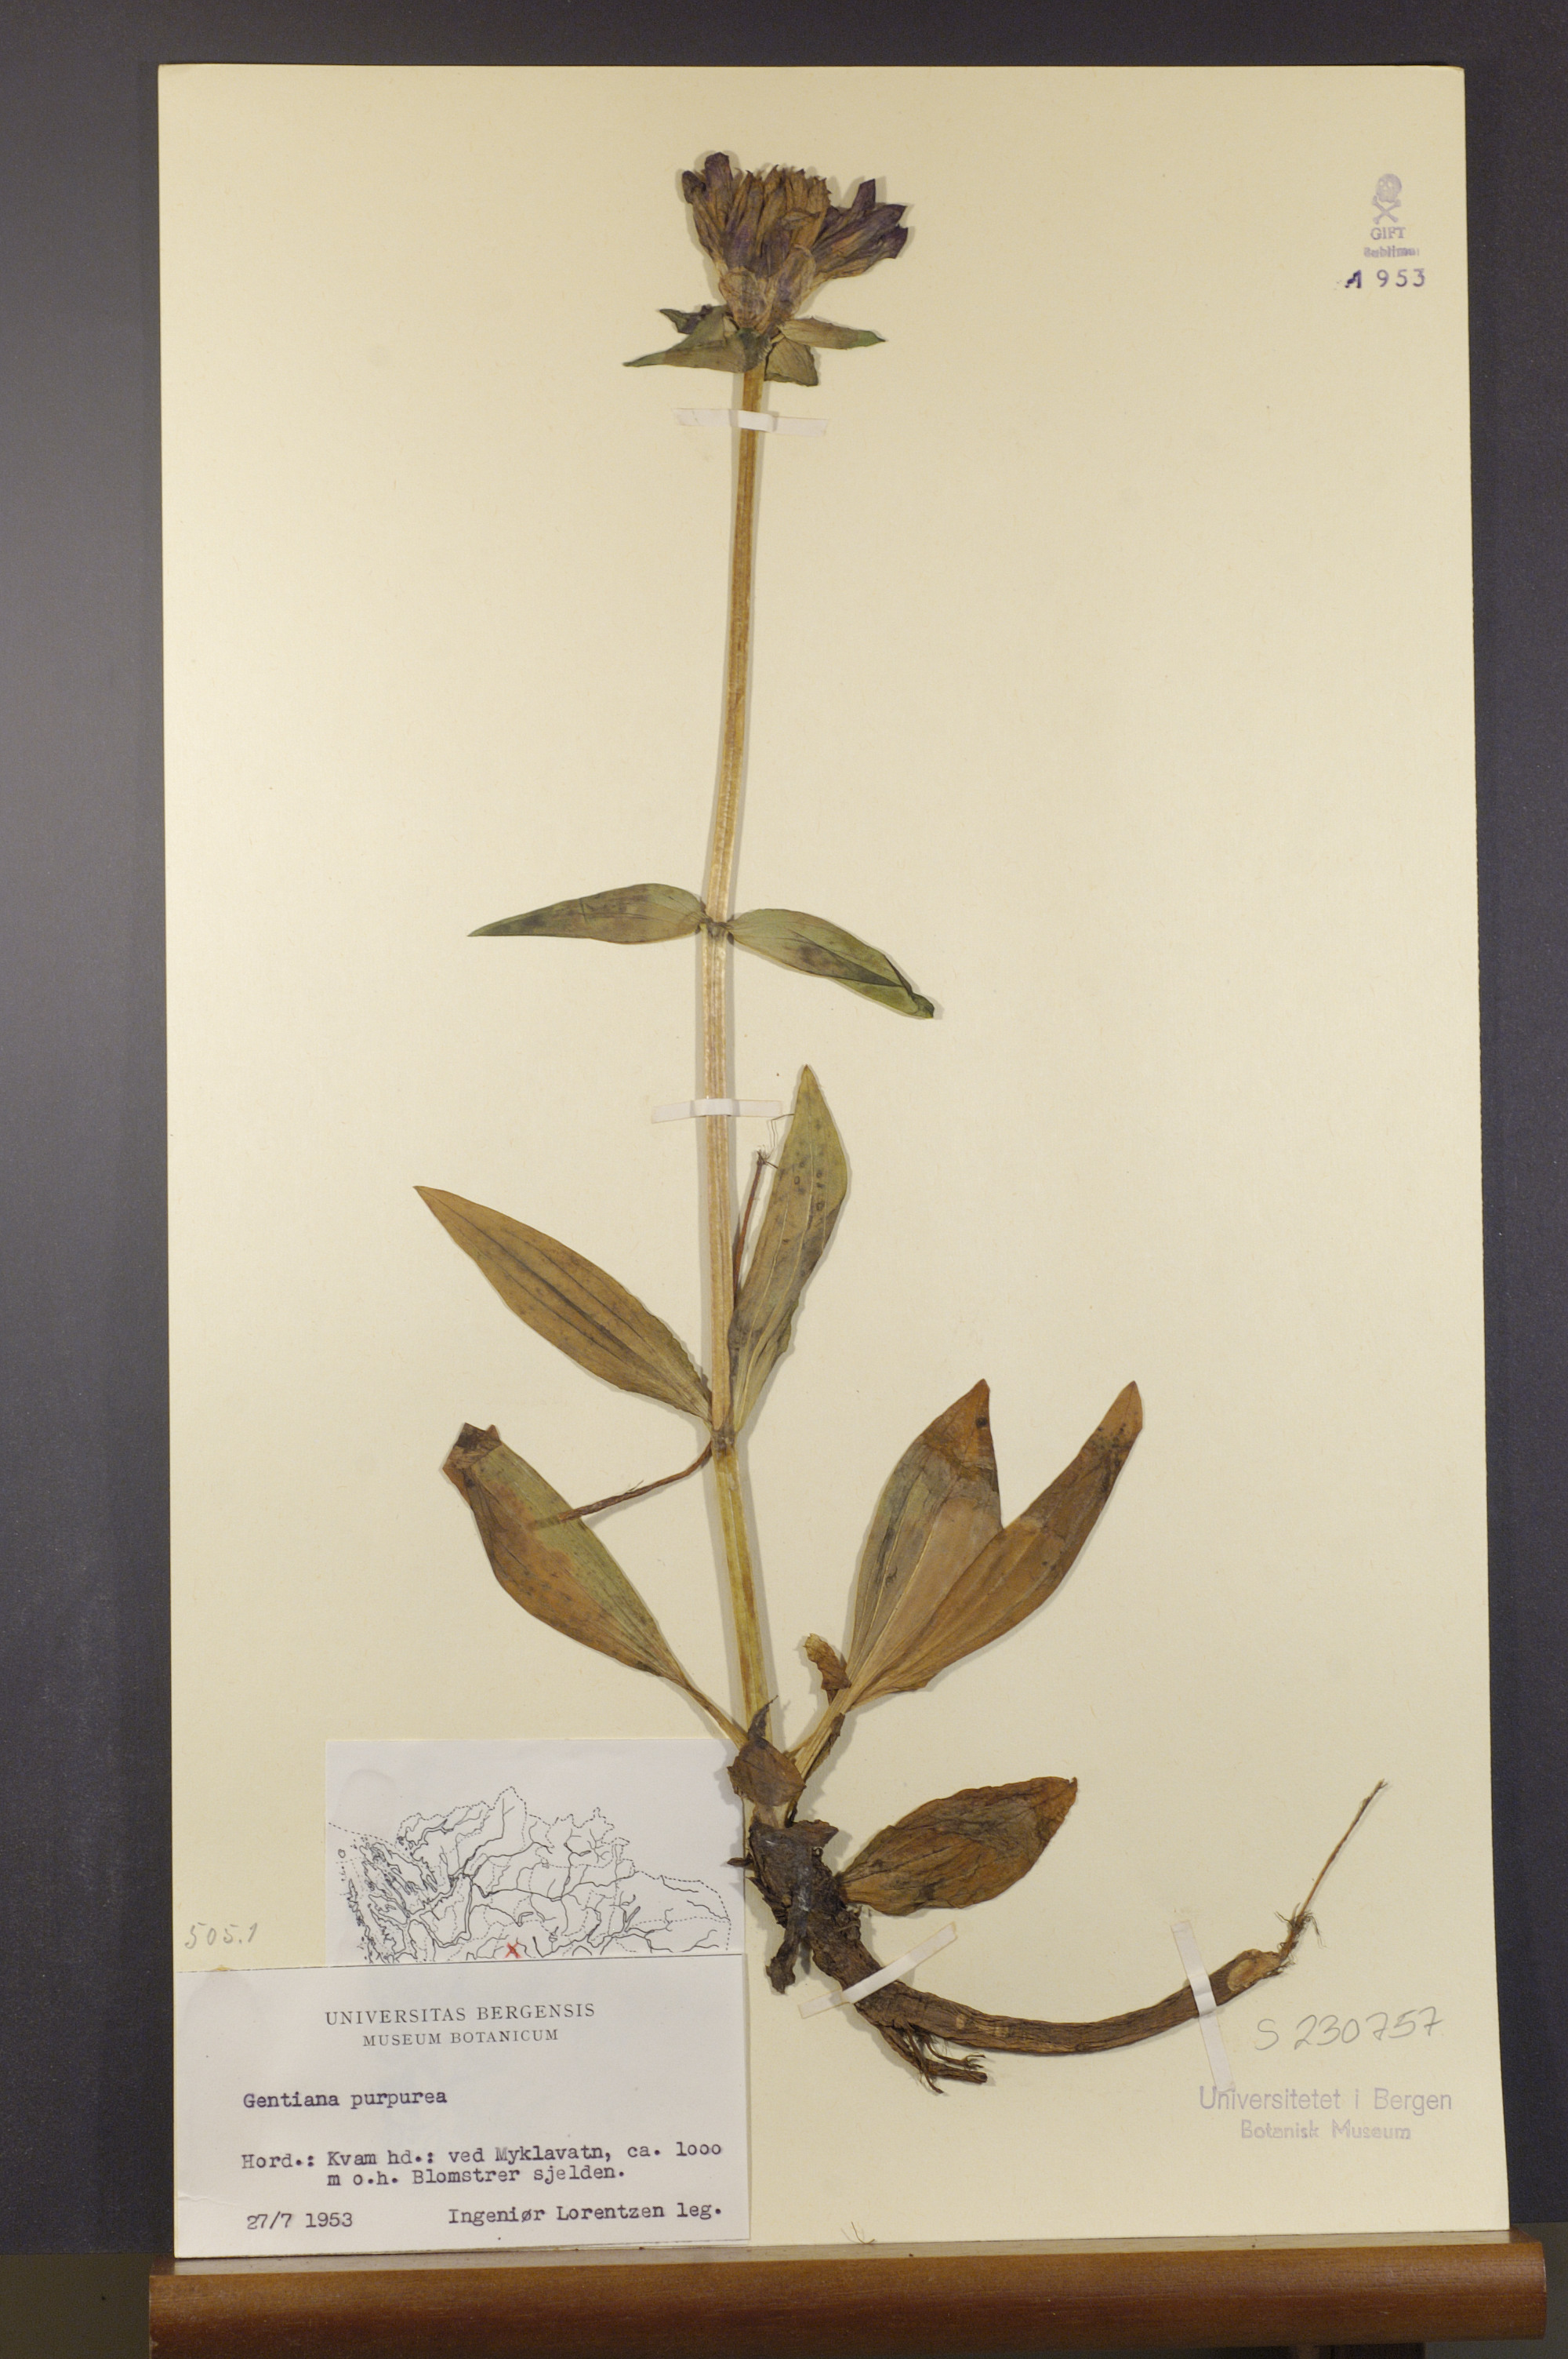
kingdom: Plantae
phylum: Tracheophyta
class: Magnoliopsida
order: Gentianales
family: Gentianaceae
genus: Gentiana
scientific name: Gentiana purpurea
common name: Purple gentian
